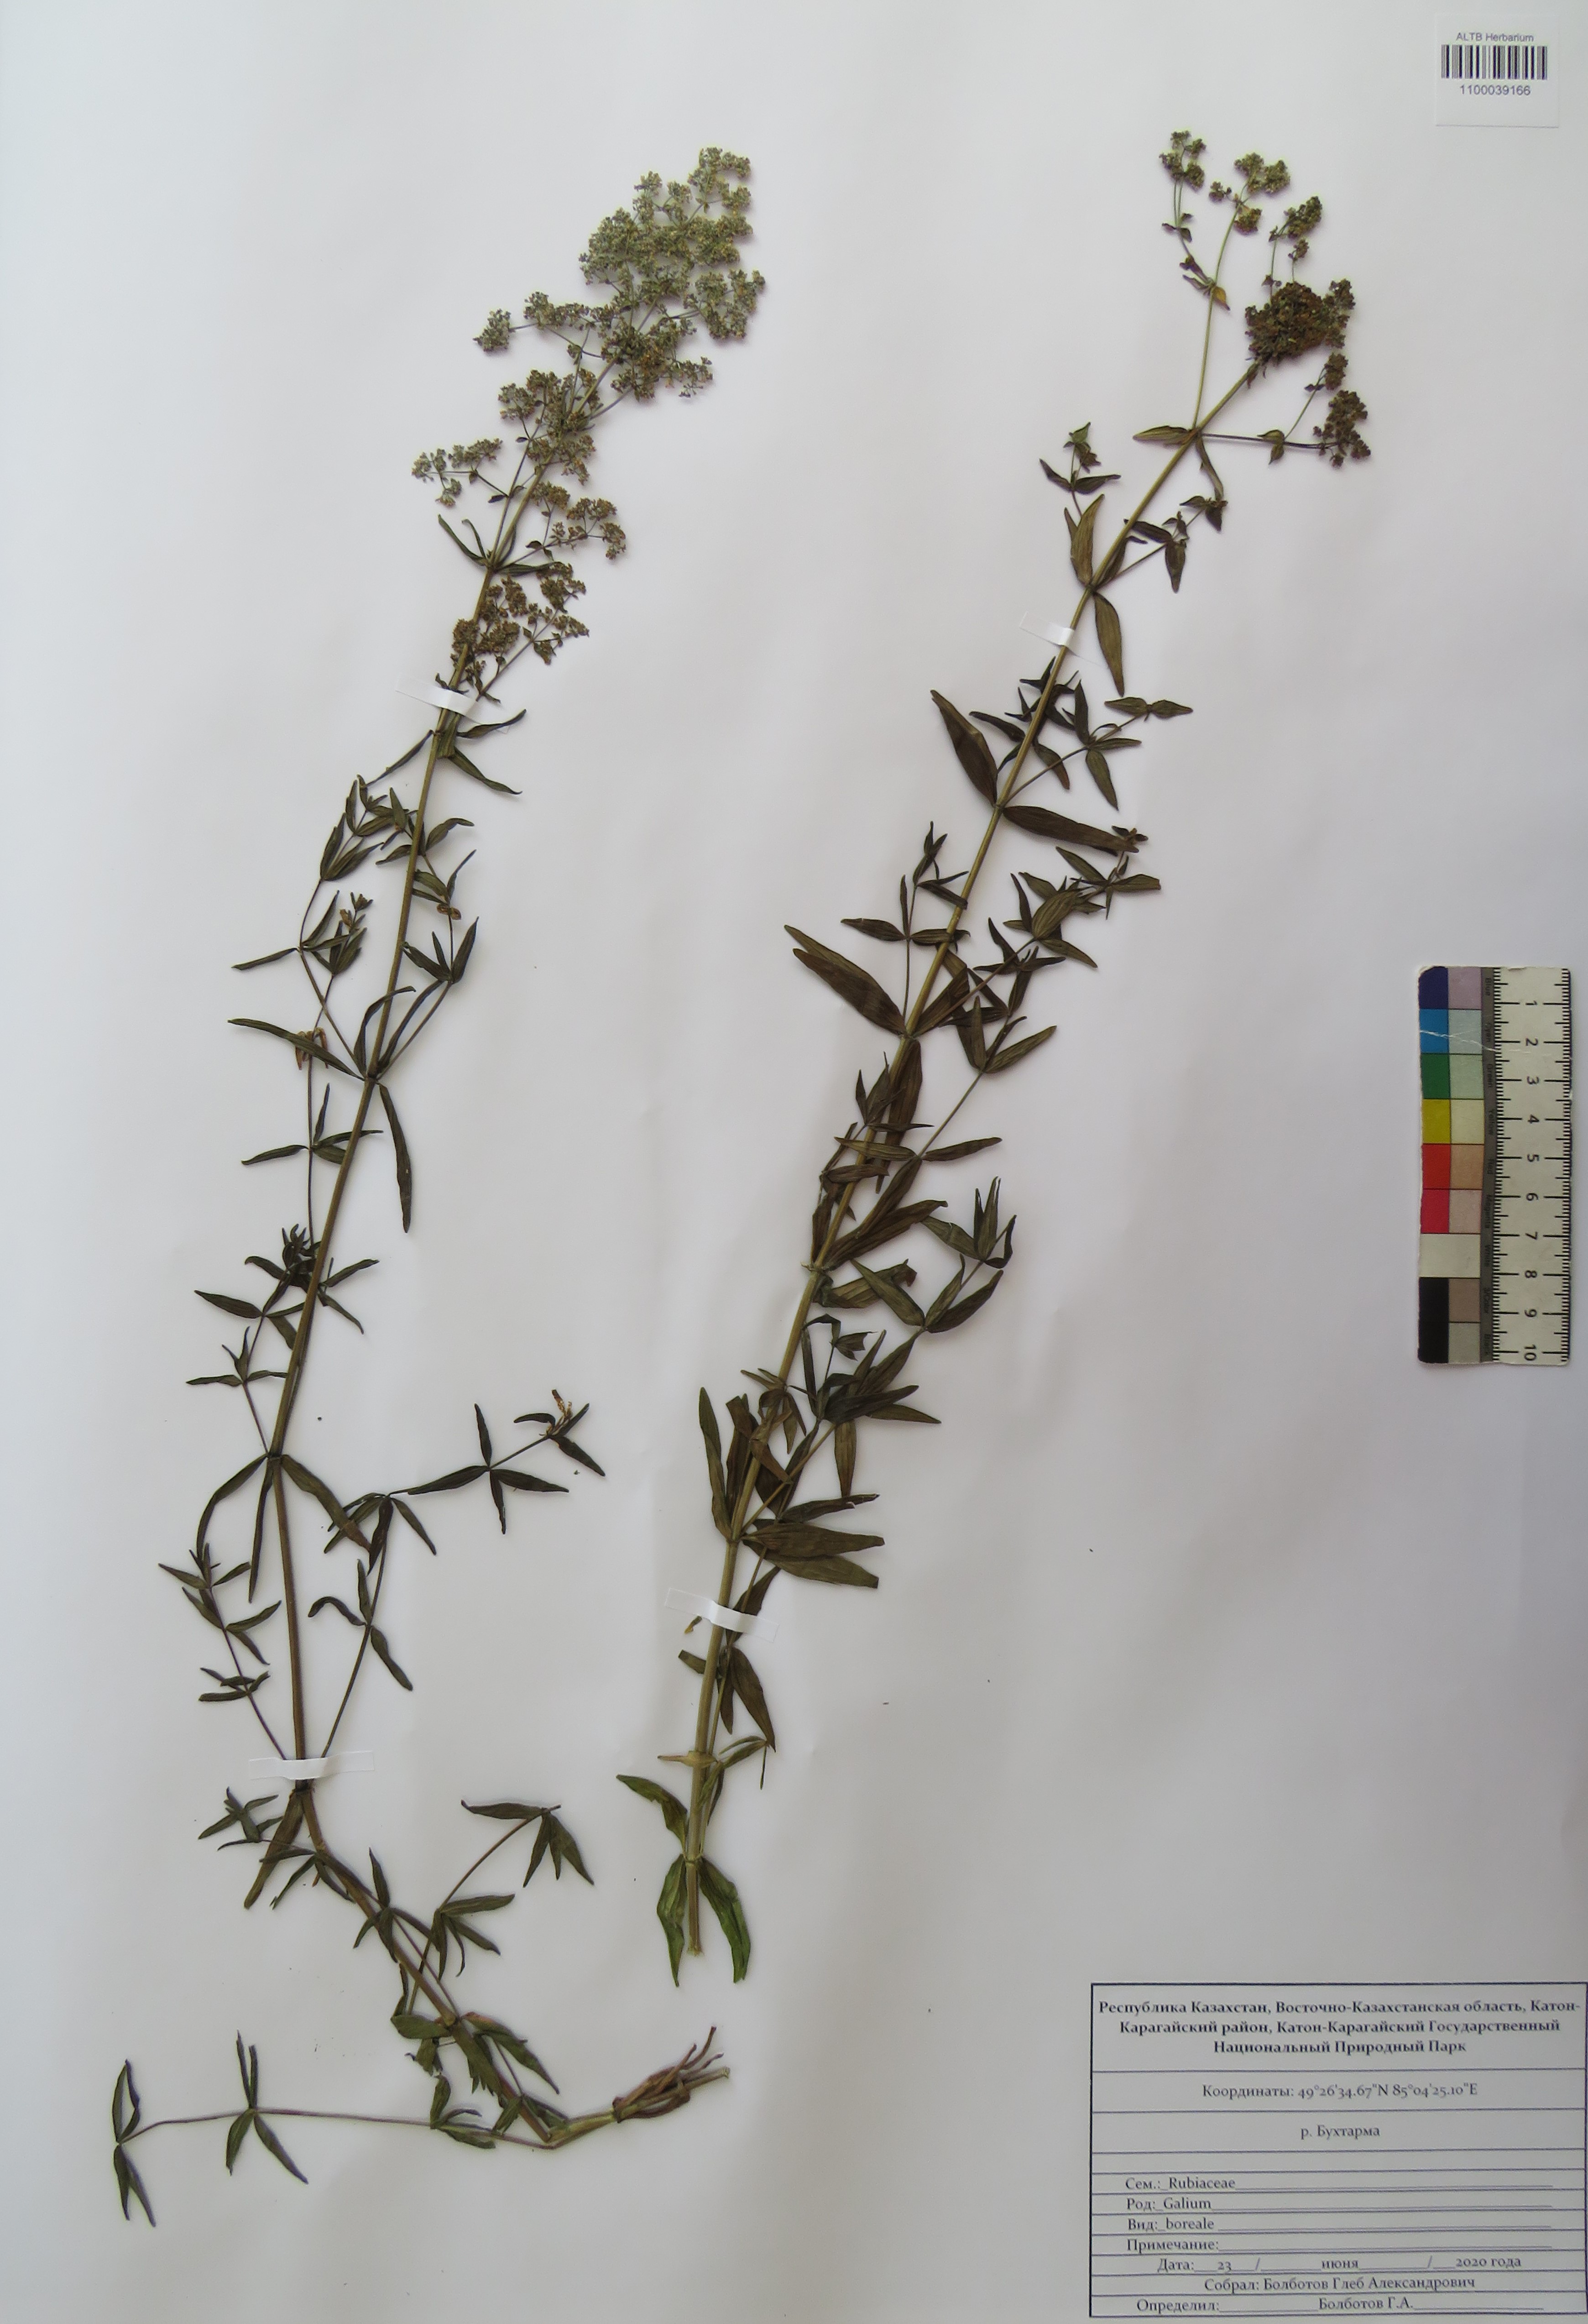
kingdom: Plantae
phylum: Tracheophyta
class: Magnoliopsida
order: Gentianales
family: Rubiaceae
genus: Galium
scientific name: Galium boreale
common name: Northern bedstraw
